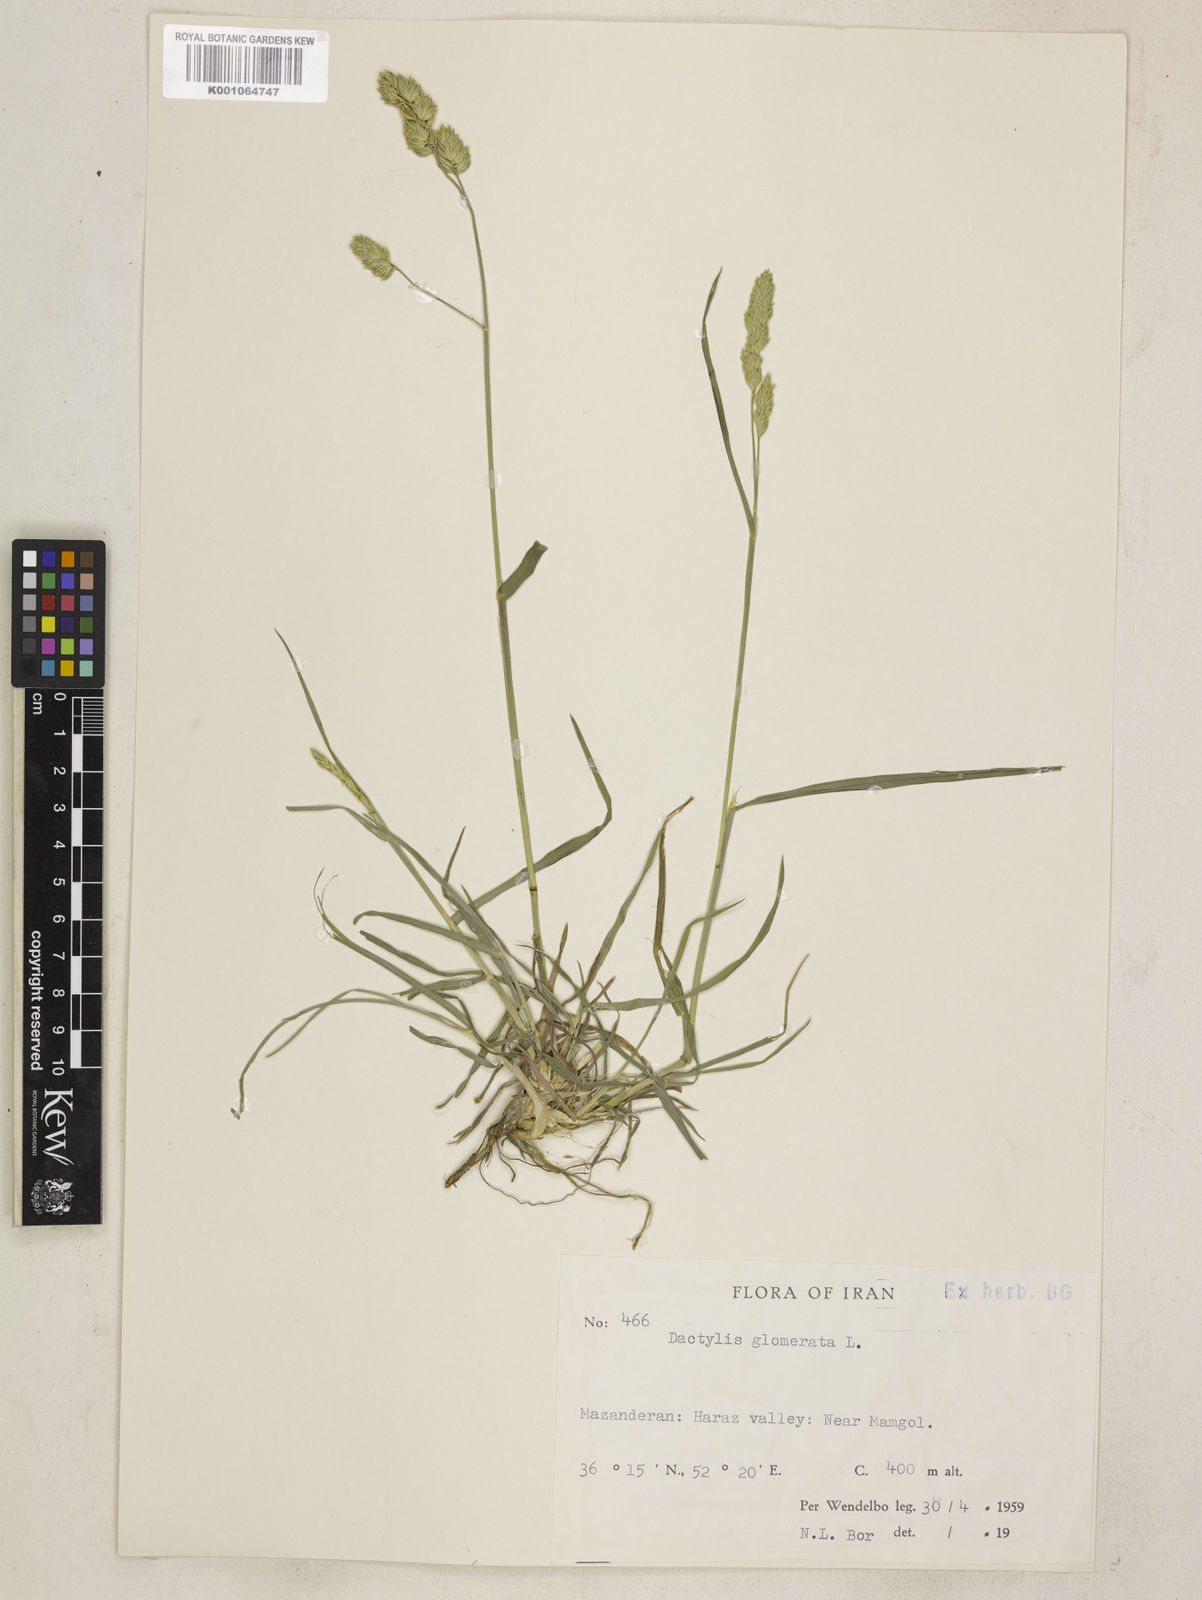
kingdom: Plantae
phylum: Tracheophyta
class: Liliopsida
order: Poales
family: Poaceae
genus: Dactylis
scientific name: Dactylis glomerata
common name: Orchardgrass
